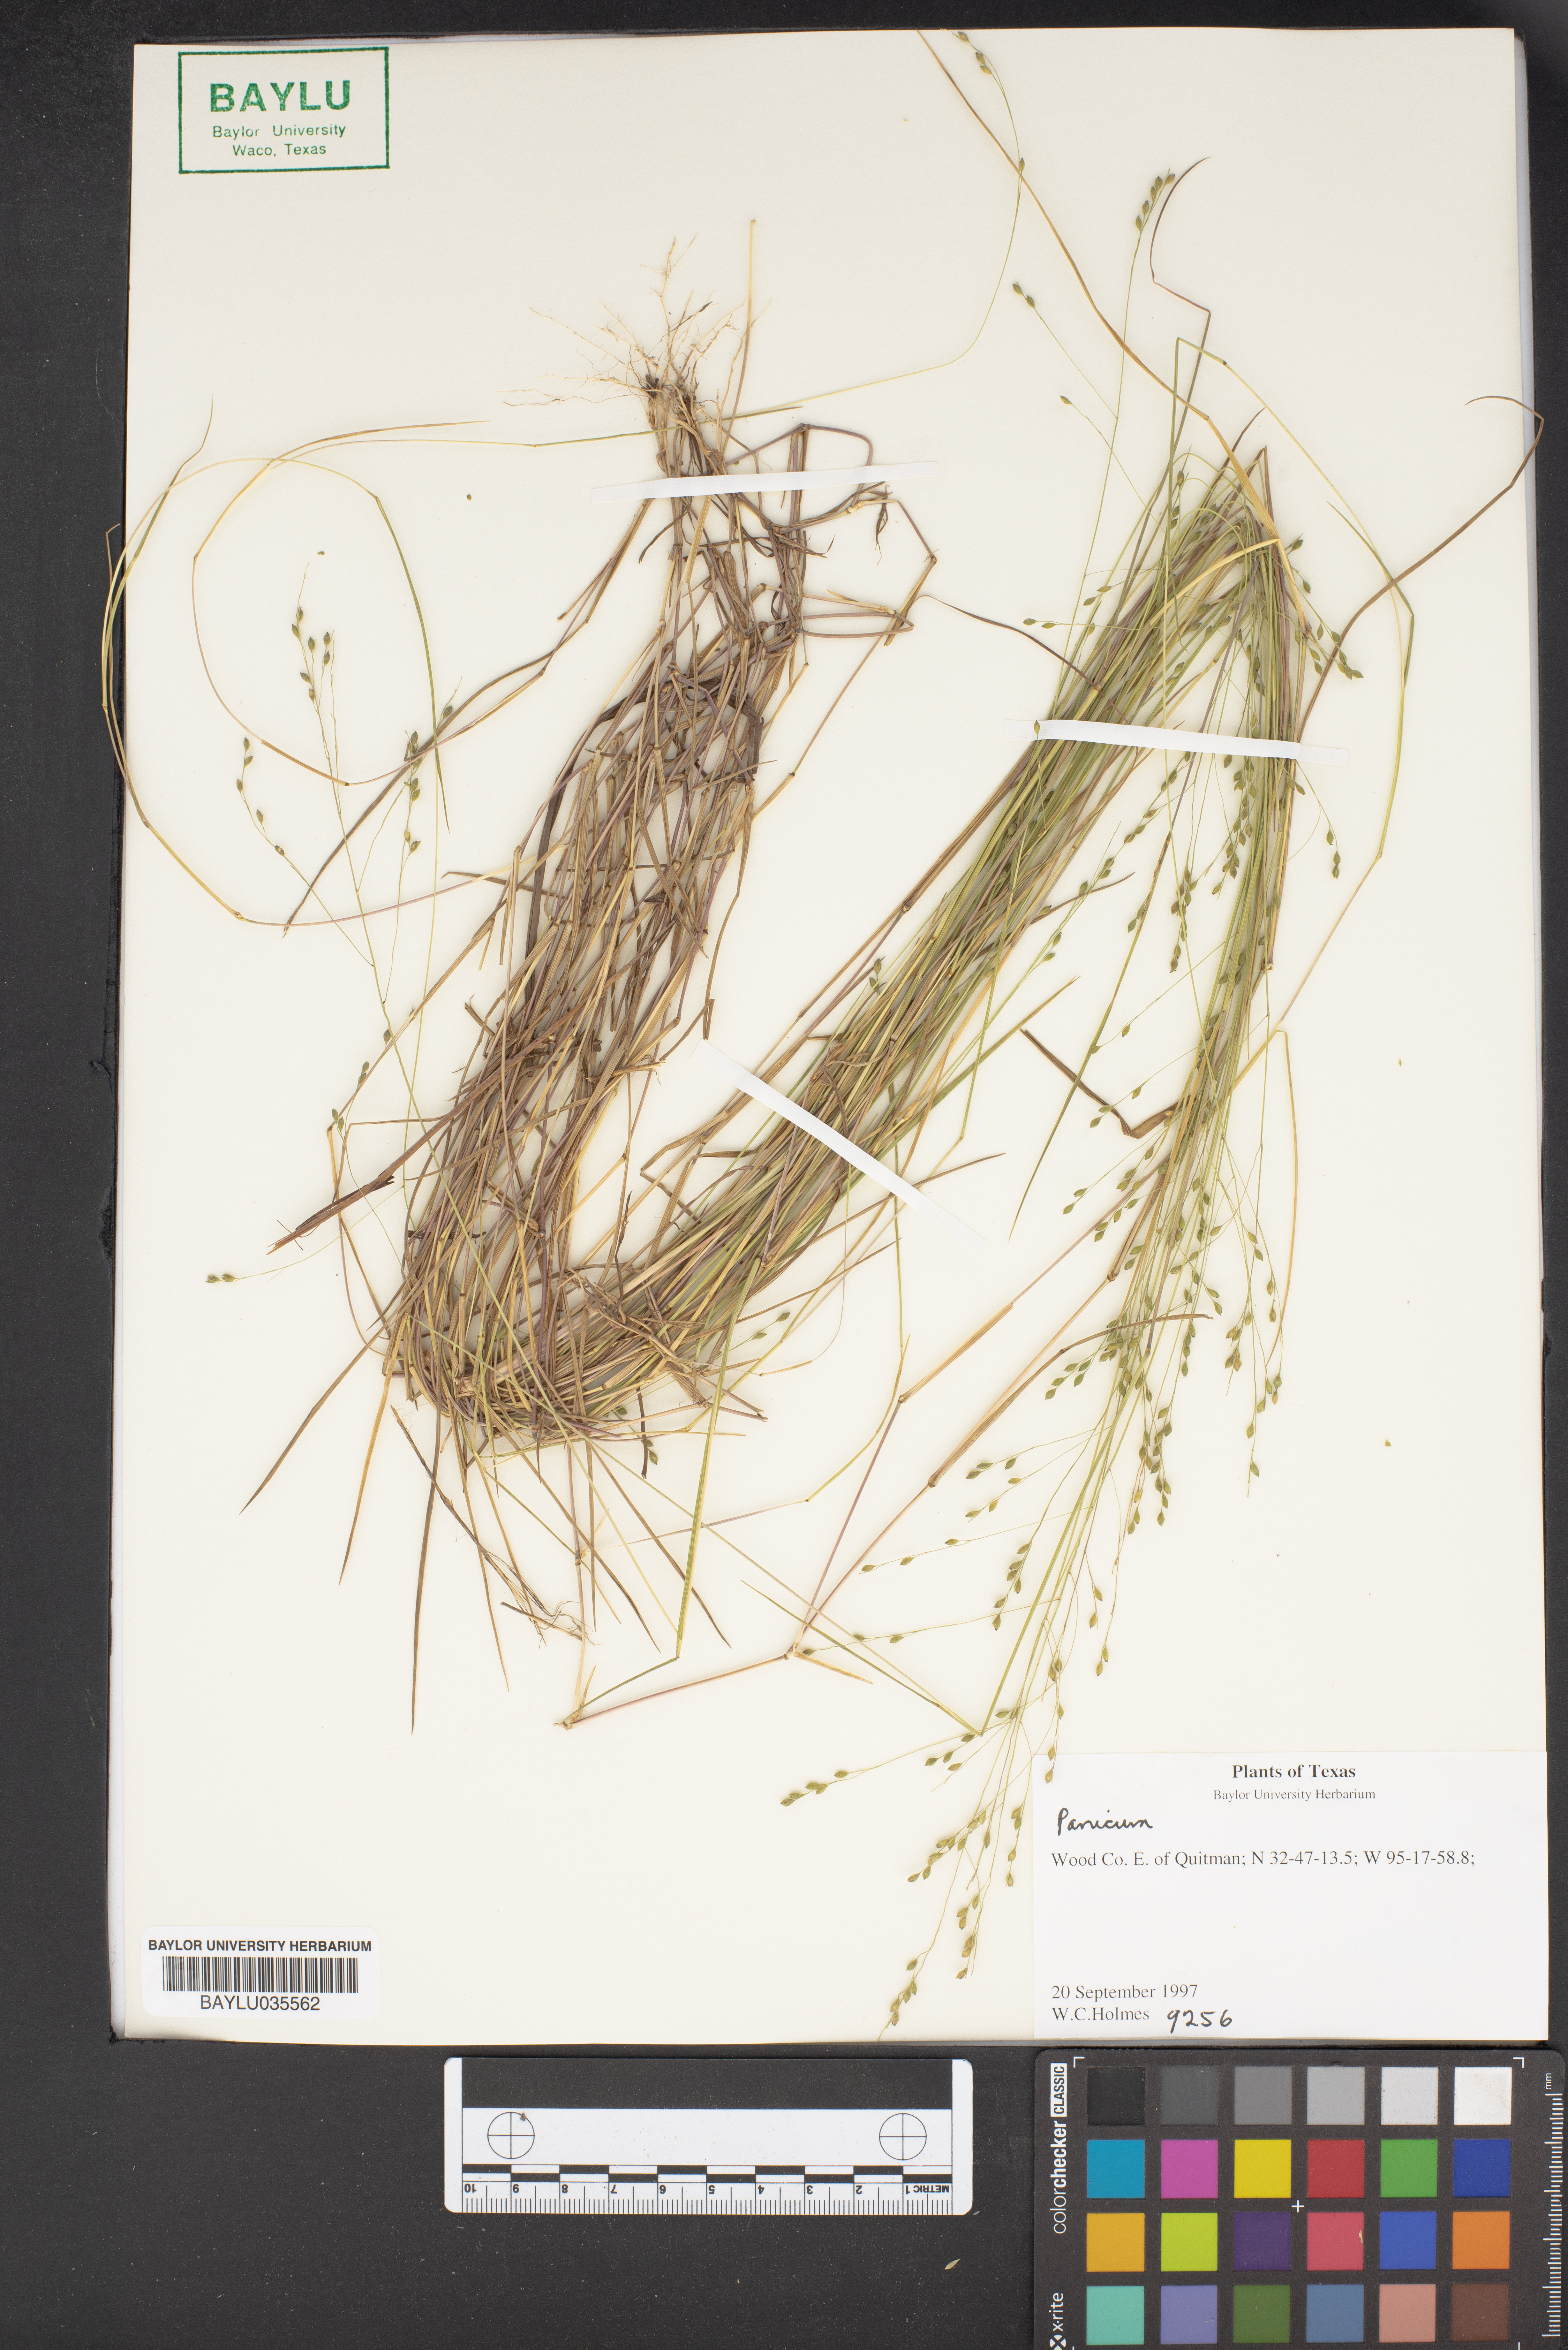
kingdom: Plantae
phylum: Tracheophyta
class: Liliopsida
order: Poales
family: Poaceae
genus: Panicum
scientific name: Panicum
